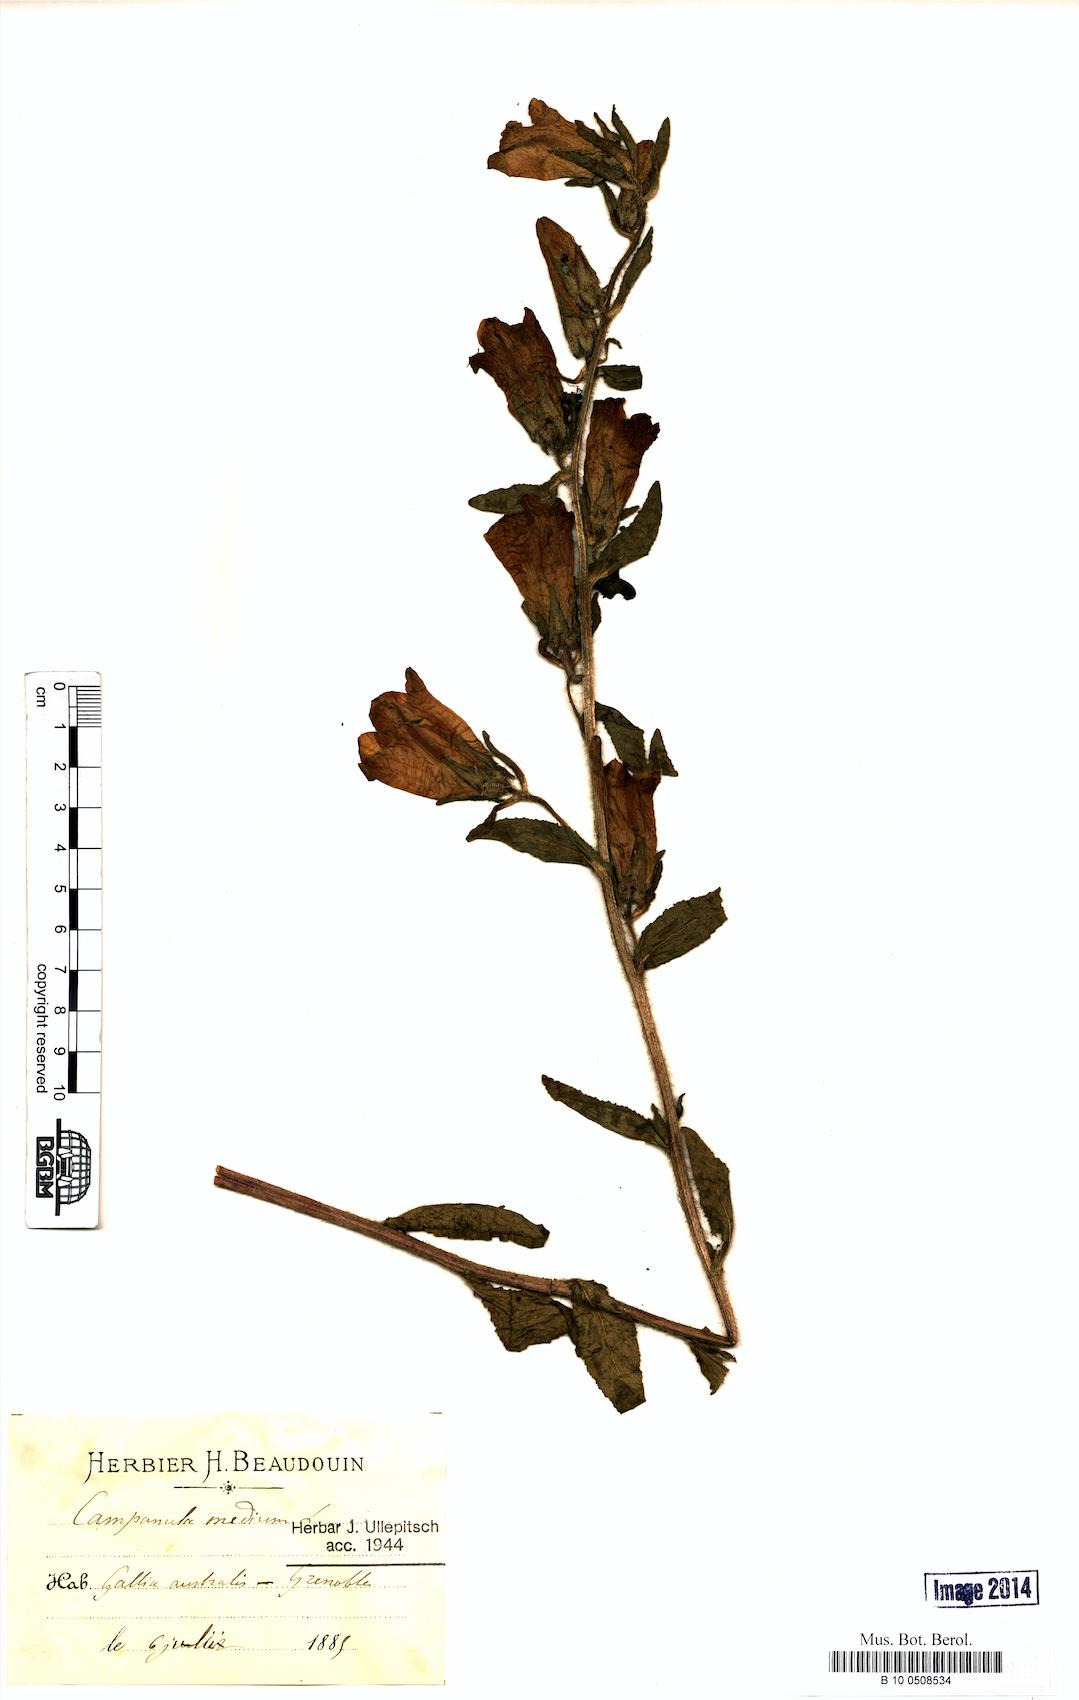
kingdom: Plantae
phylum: Tracheophyta
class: Magnoliopsida
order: Asterales
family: Campanulaceae
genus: Campanula
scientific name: Campanula medium
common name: Canterbury bells
